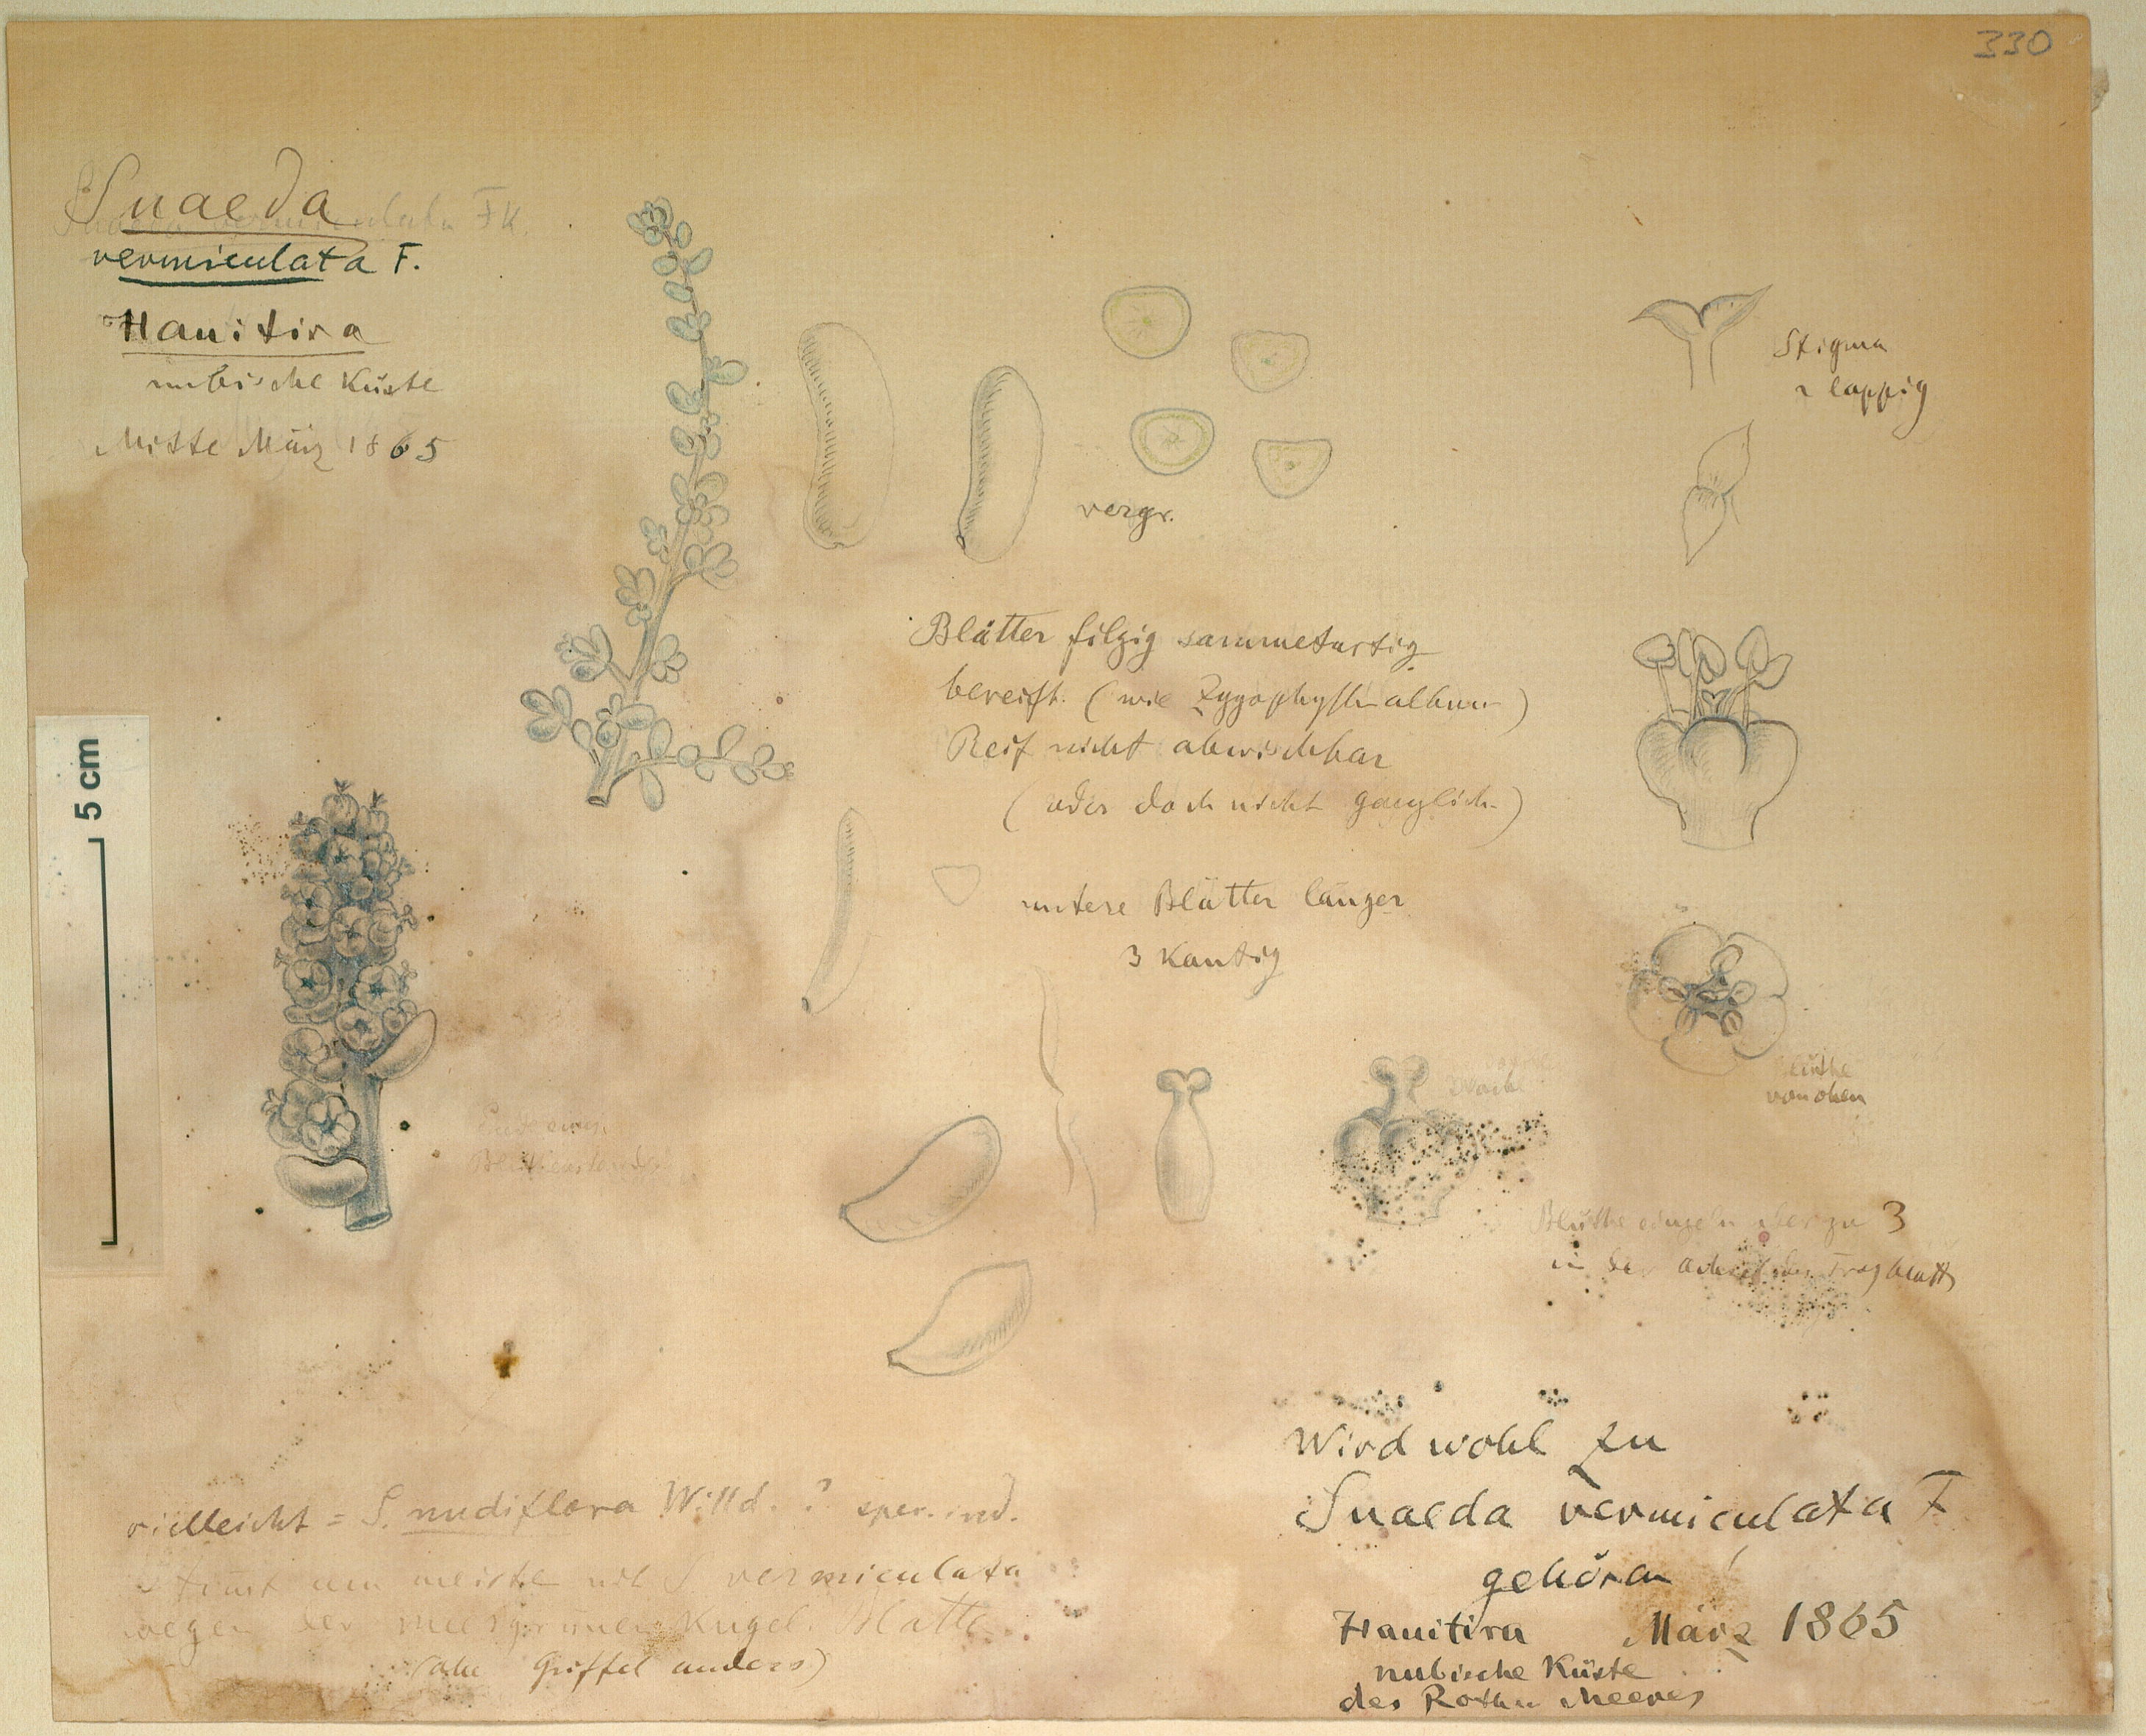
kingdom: Plantae
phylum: Tracheophyta
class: Magnoliopsida
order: Caryophyllales
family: Amaranthaceae
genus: Suaeda
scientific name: Suaeda vermiculata
